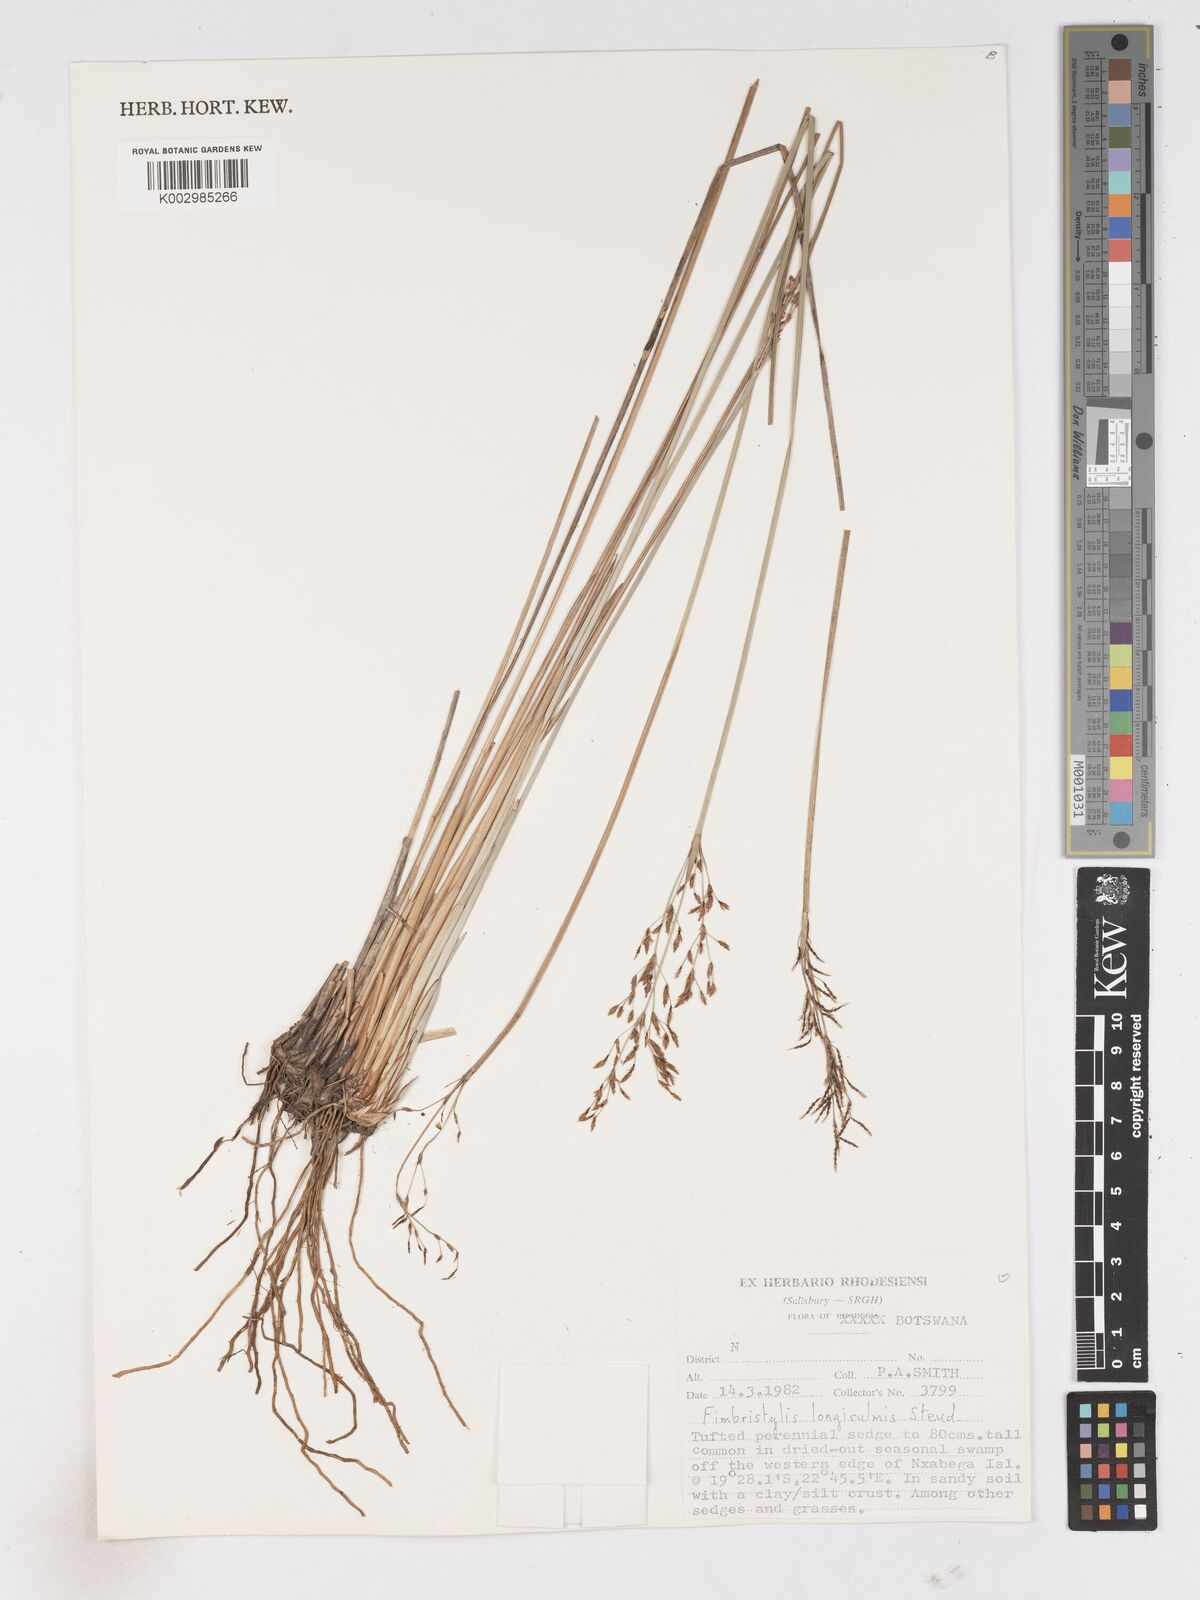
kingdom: Plantae
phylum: Tracheophyta
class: Liliopsida
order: Poales
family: Cyperaceae
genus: Fimbristylis
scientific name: Fimbristylis bivalvis
